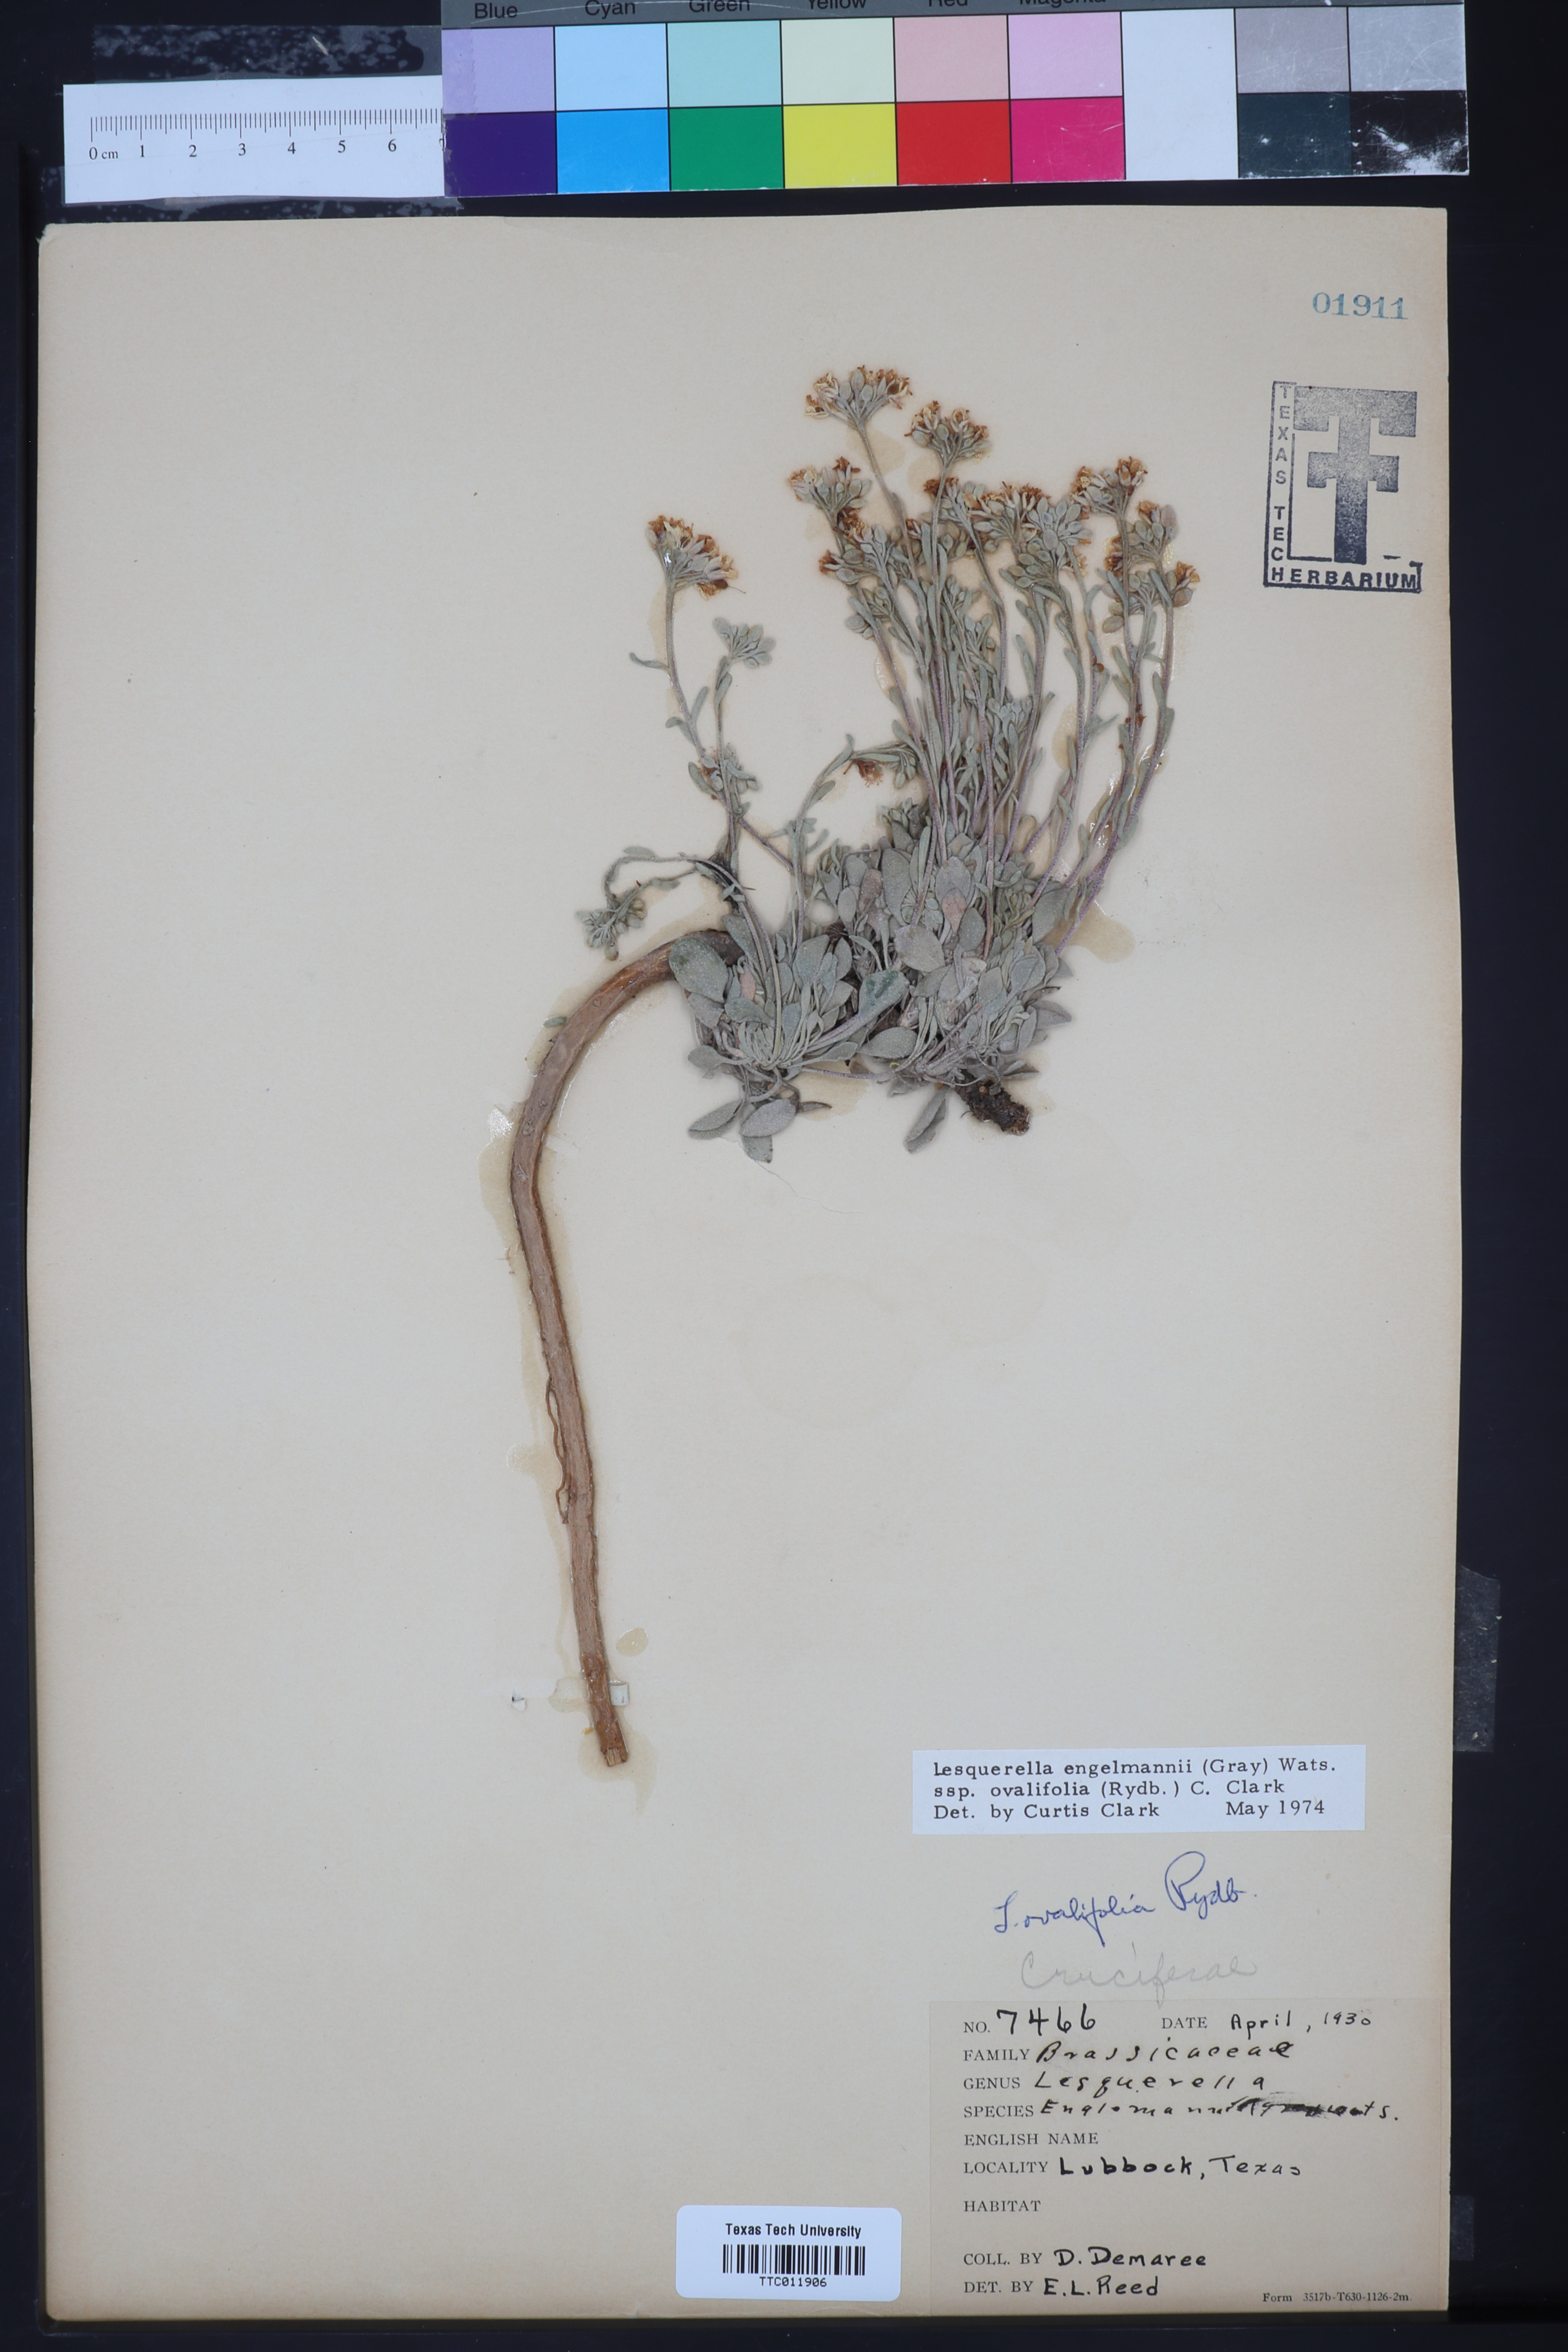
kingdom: Plantae
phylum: Tracheophyta
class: Magnoliopsida
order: Brassicales
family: Brassicaceae
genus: Physaria
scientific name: Physaria ovalifolia
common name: Round-leaf bladderpod
